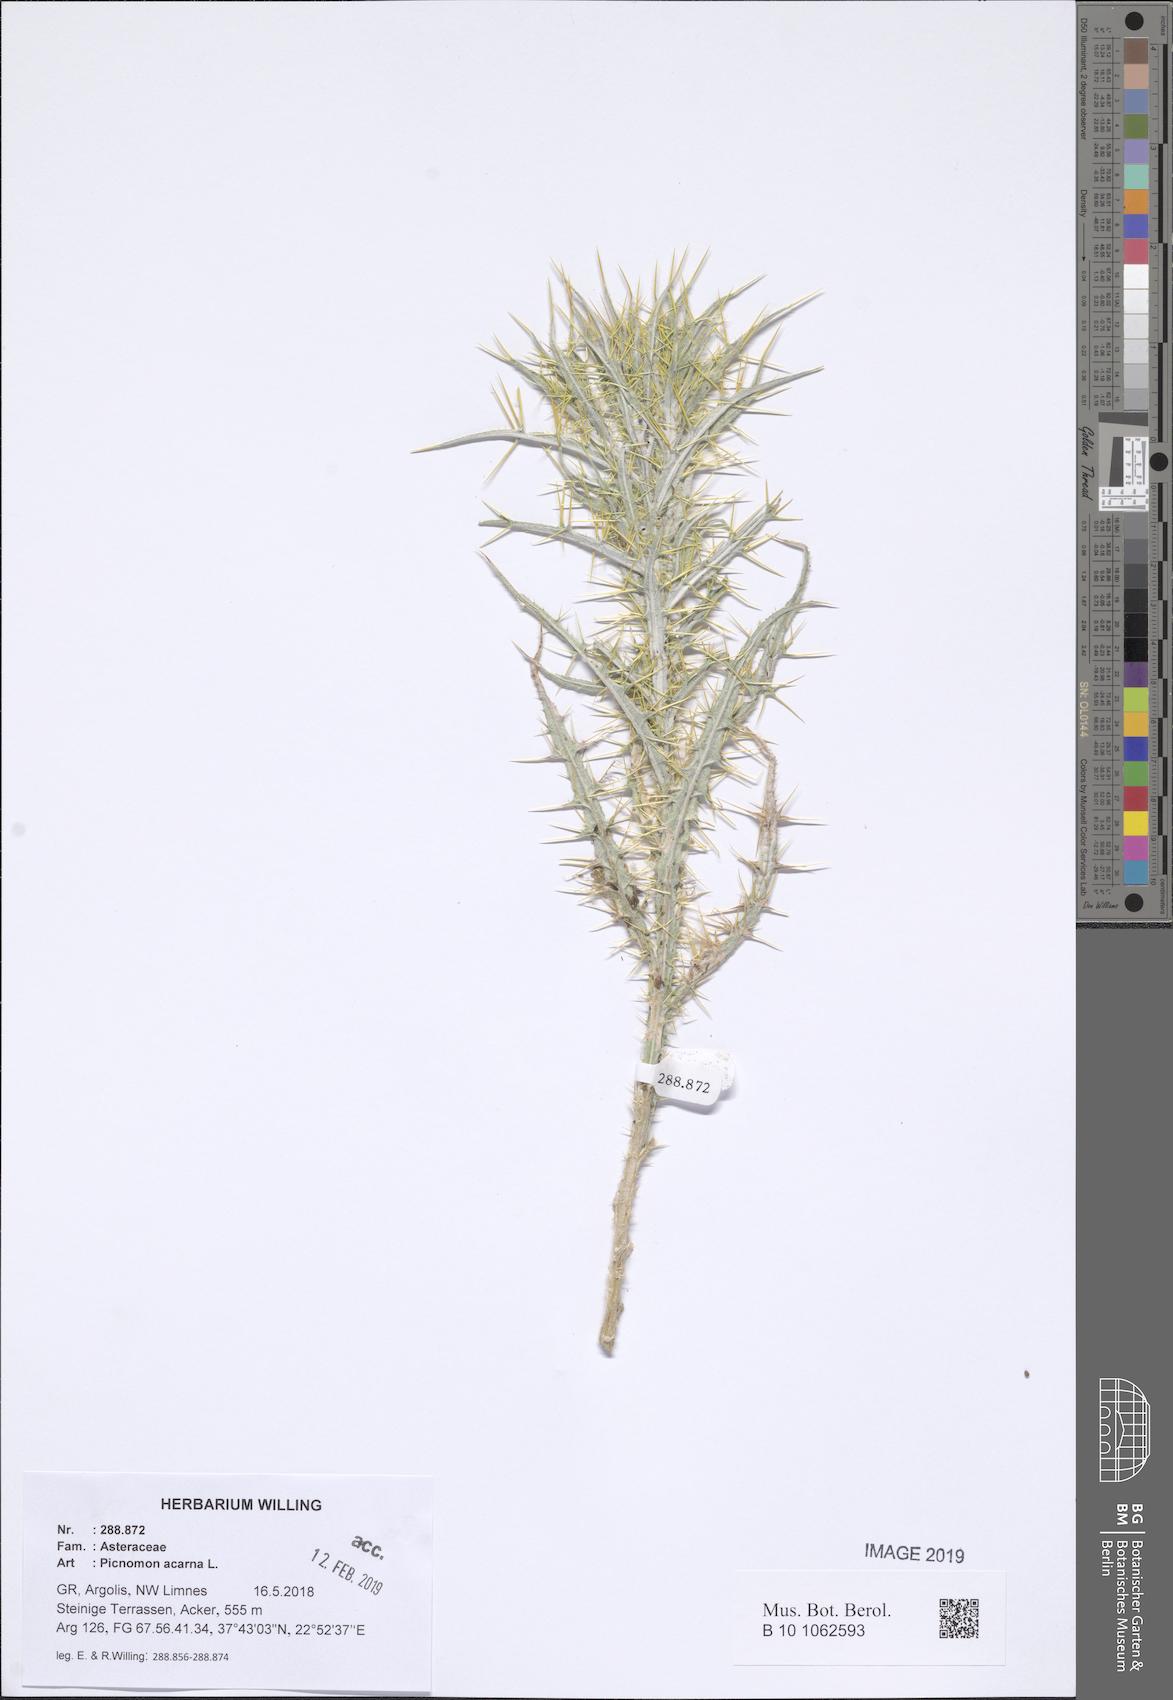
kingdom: Plantae
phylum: Tracheophyta
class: Magnoliopsida
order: Asterales
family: Asteraceae
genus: Picnomon
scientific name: Picnomon acarna
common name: Soldier thistle
